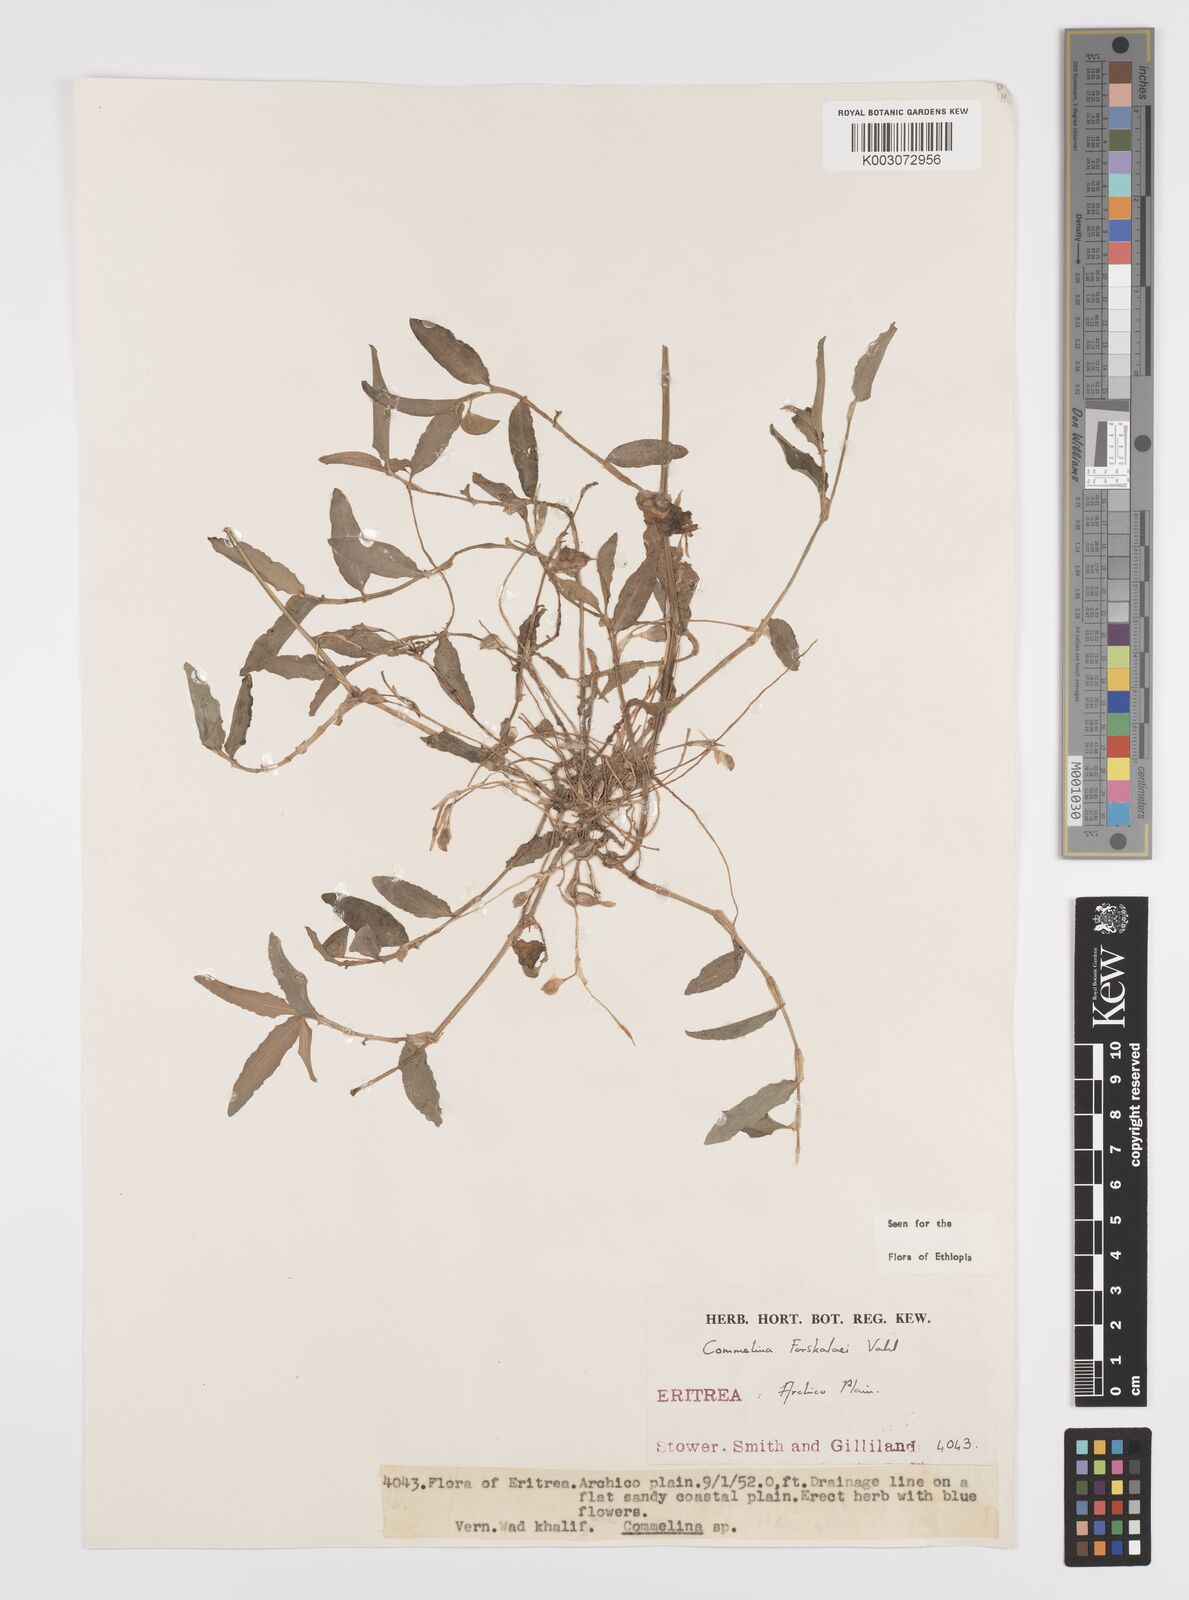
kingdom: Plantae
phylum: Tracheophyta
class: Liliopsida
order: Commelinales
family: Commelinaceae
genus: Commelina
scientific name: Commelina forskaolii
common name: Rat's ear
